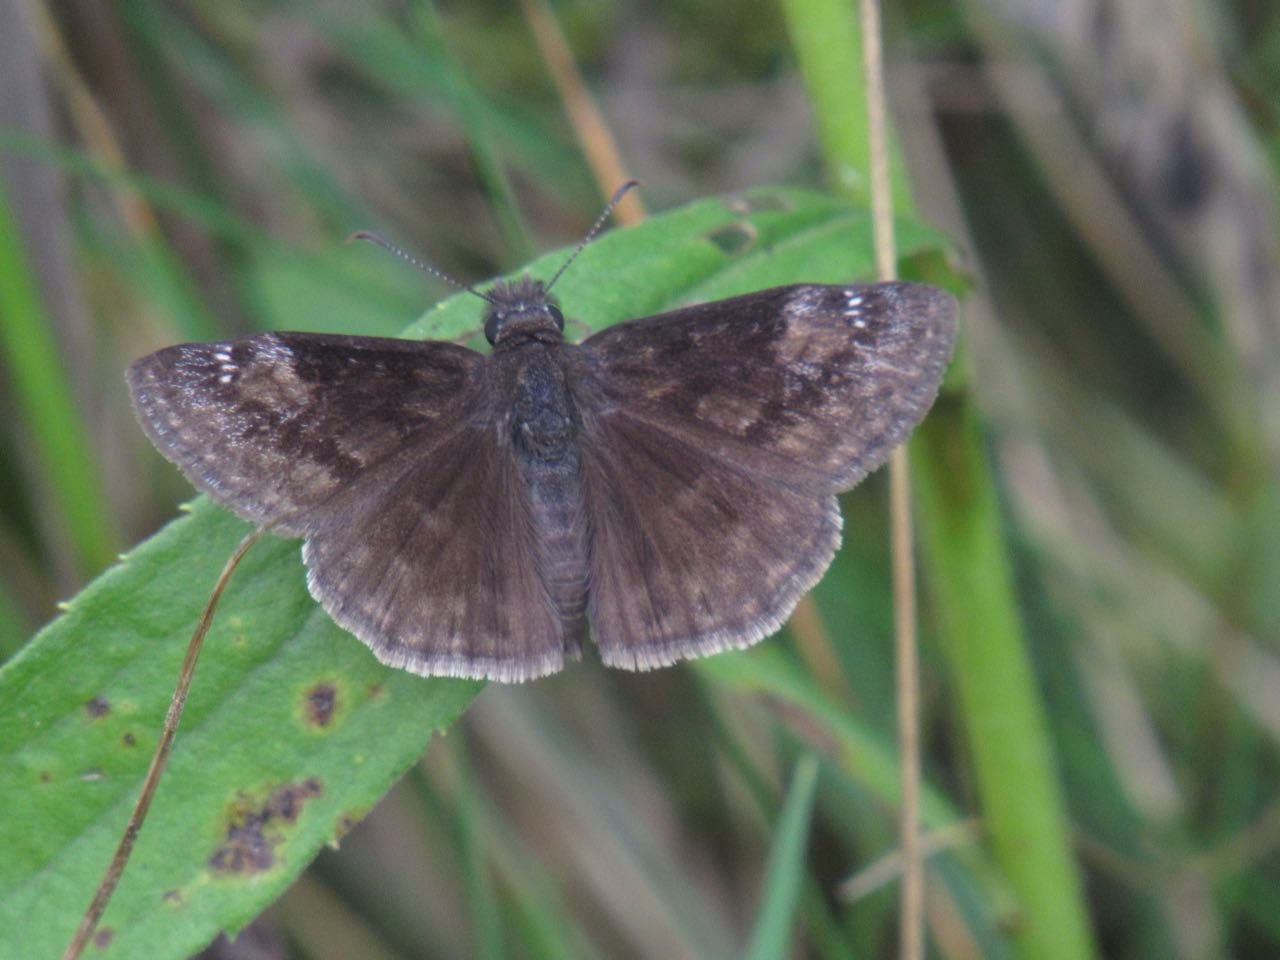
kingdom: Animalia
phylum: Arthropoda
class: Insecta
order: Lepidoptera
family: Hesperiidae
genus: Gesta
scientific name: Gesta
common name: Wild Indigo Duskywing
